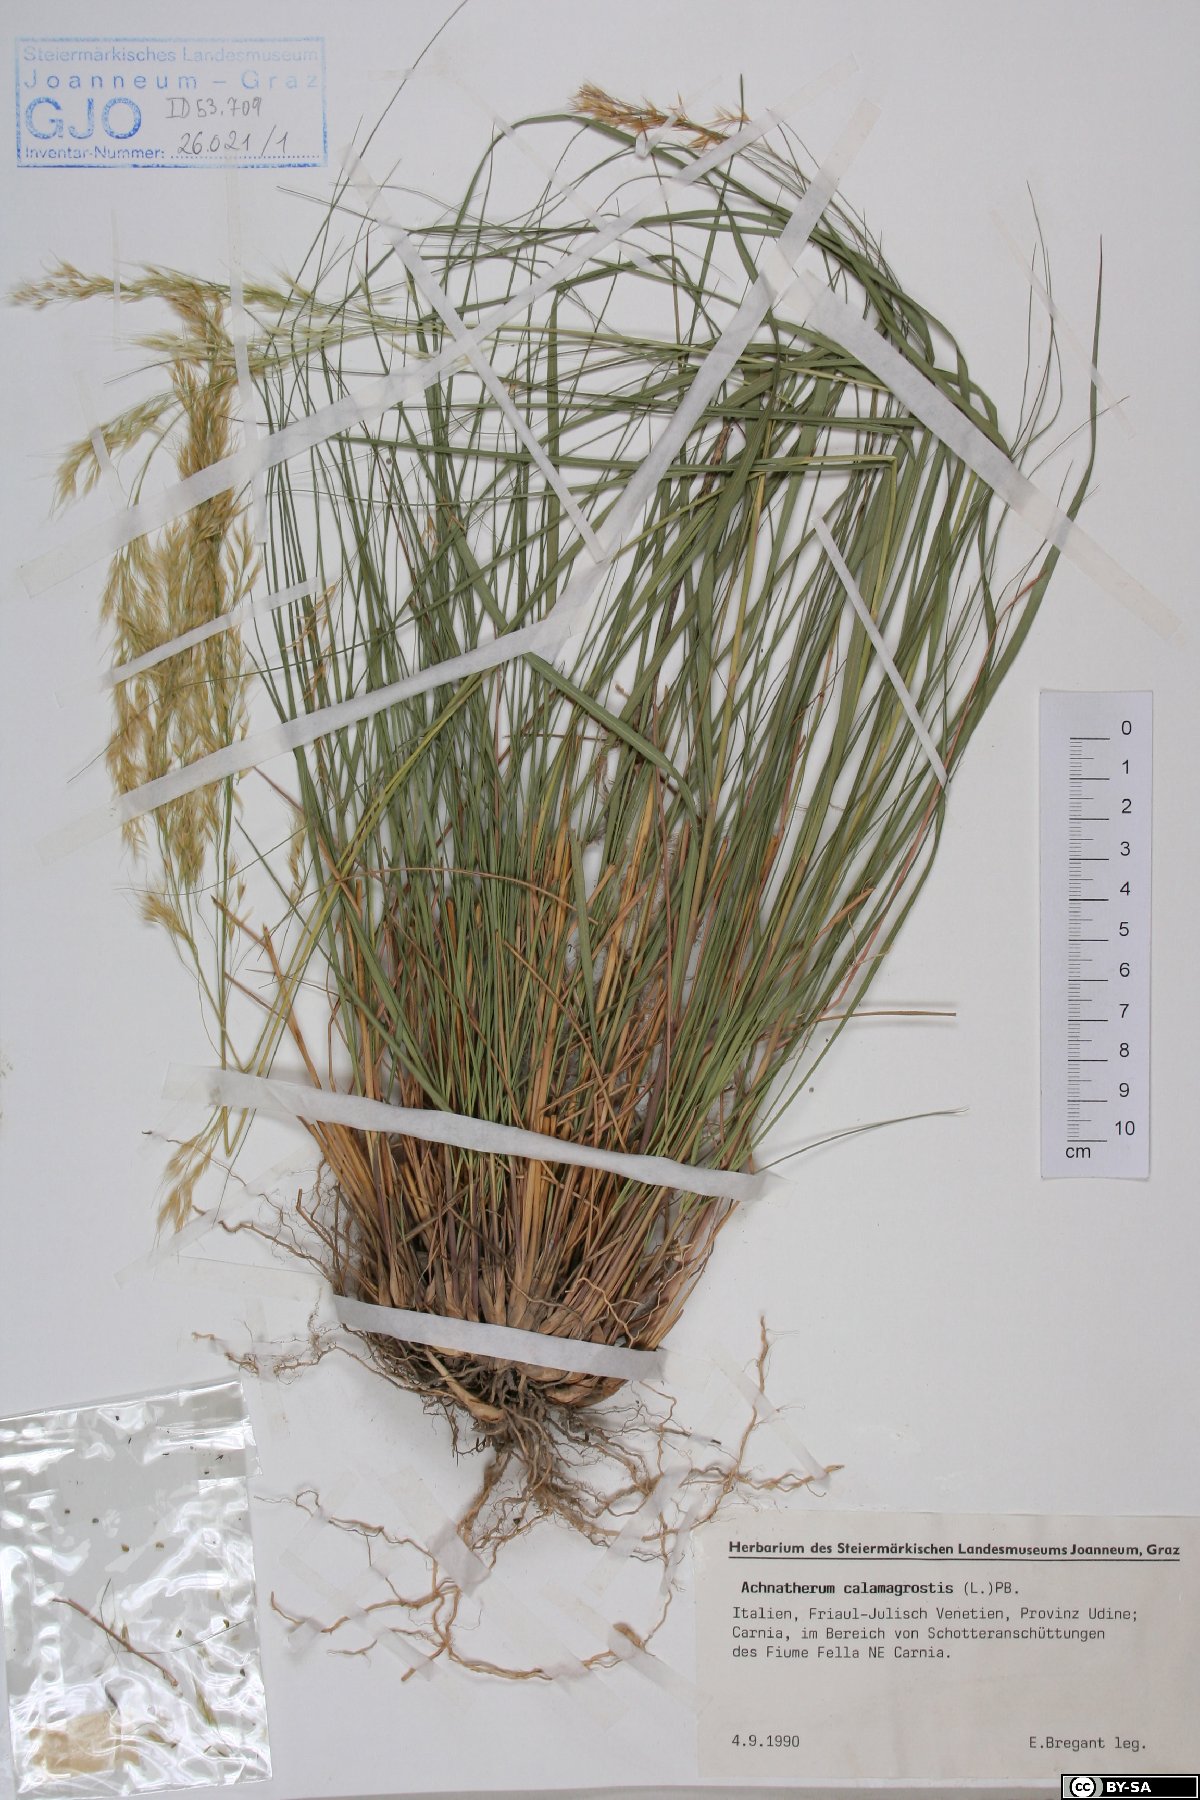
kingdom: Plantae
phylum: Tracheophyta
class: Liliopsida
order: Poales
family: Poaceae
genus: Achnatherum
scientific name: Achnatherum calamagrostis
